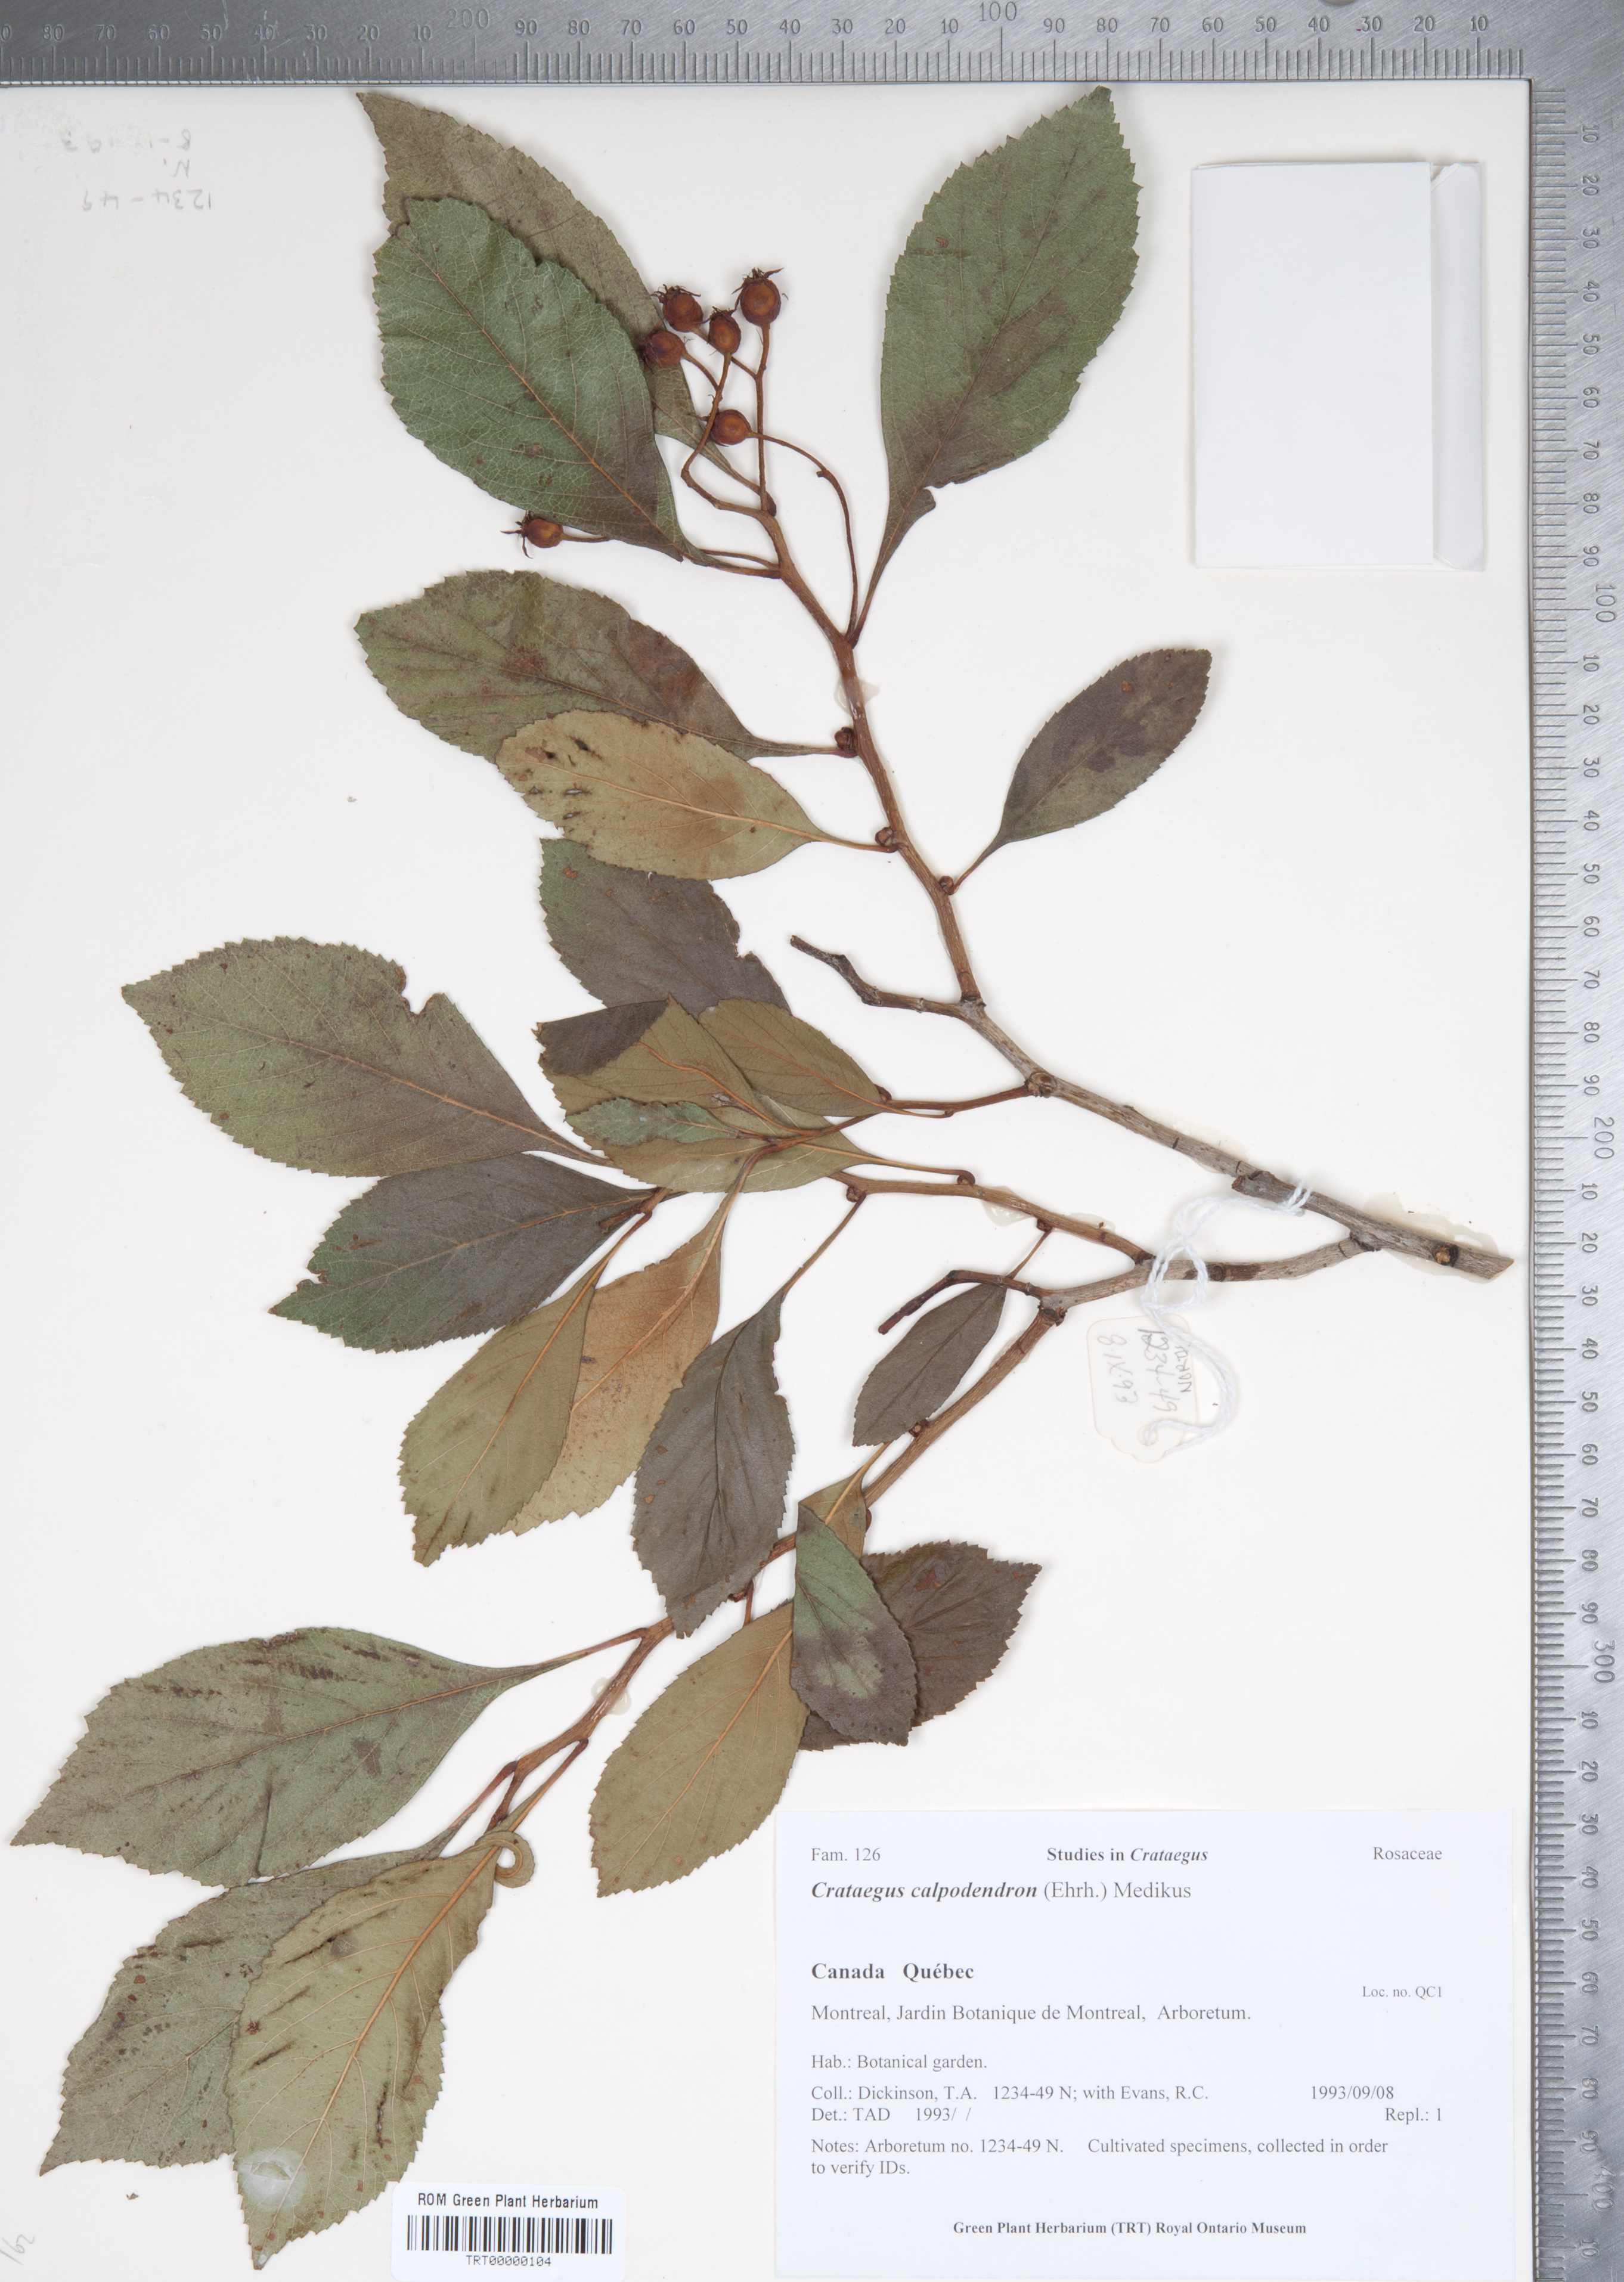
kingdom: Plantae
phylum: Tracheophyta
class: Magnoliopsida
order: Rosales
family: Rosaceae
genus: Crataegus
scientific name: Crataegus calpodendron
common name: Pear hawthorn
